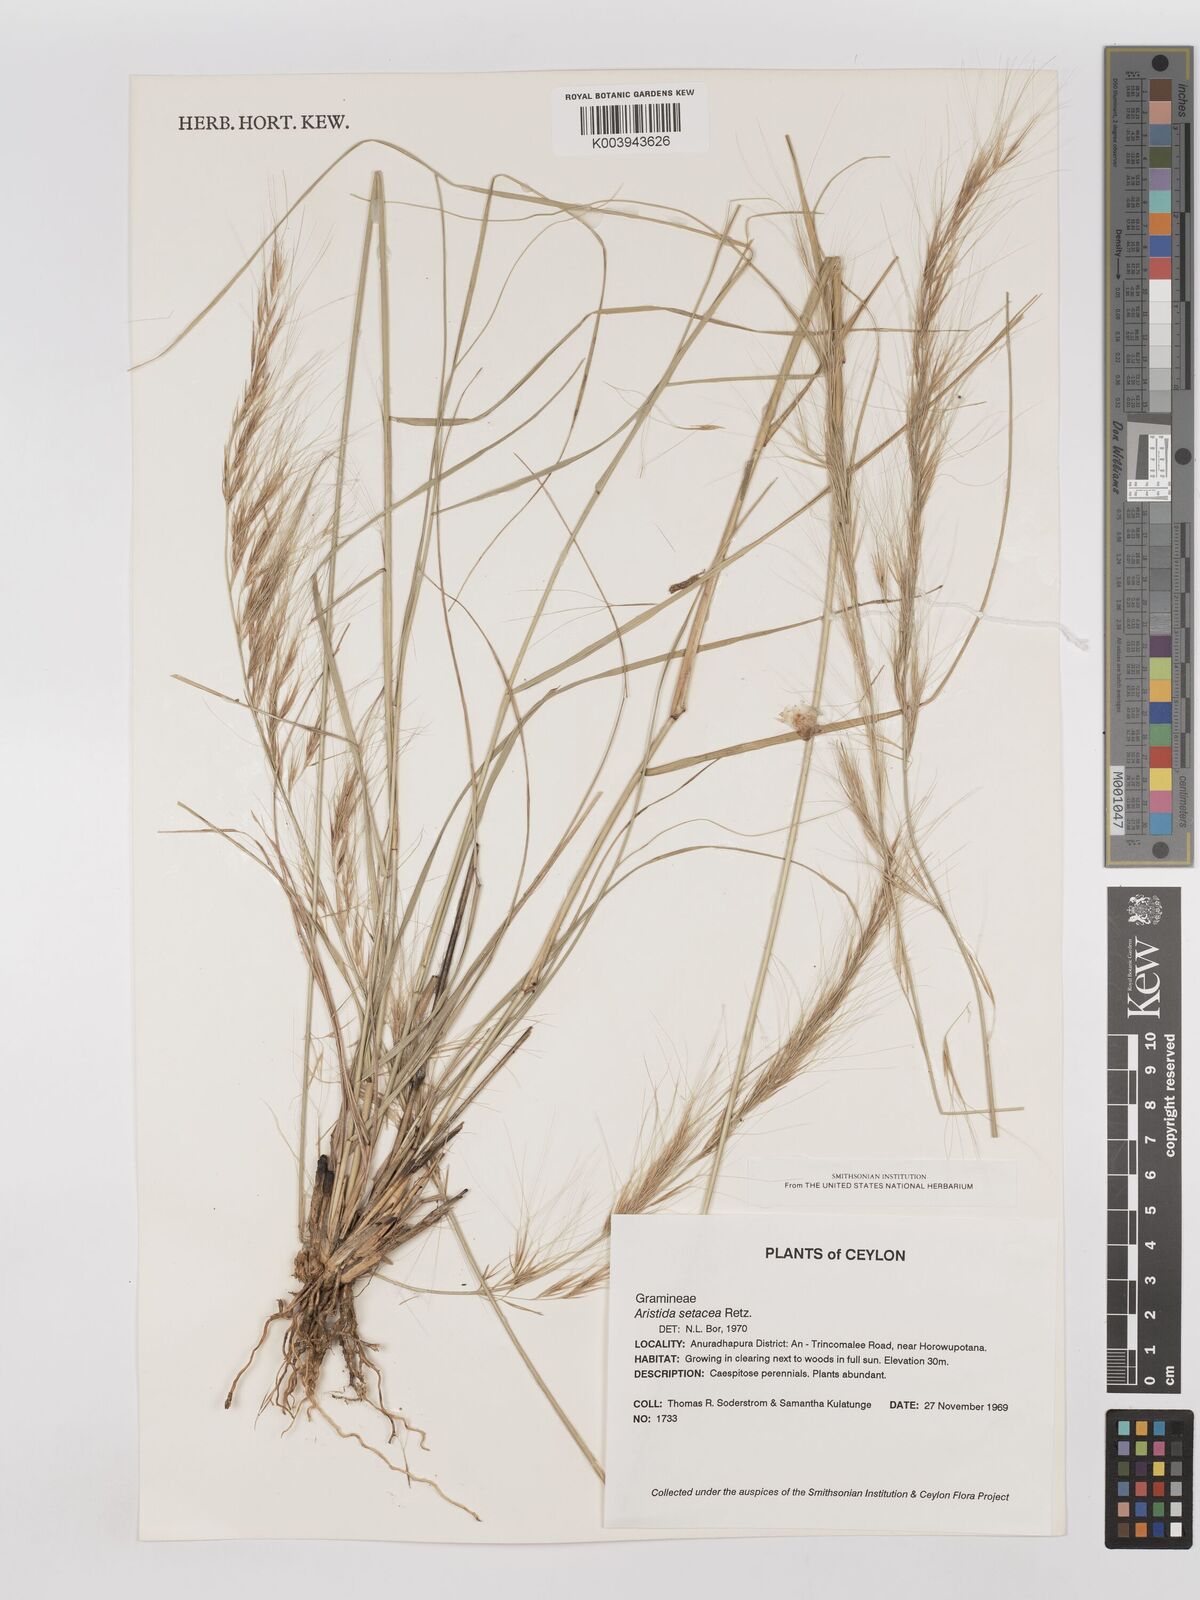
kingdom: Plantae
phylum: Tracheophyta
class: Liliopsida
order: Poales
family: Poaceae
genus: Aristida
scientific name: Aristida setacea
